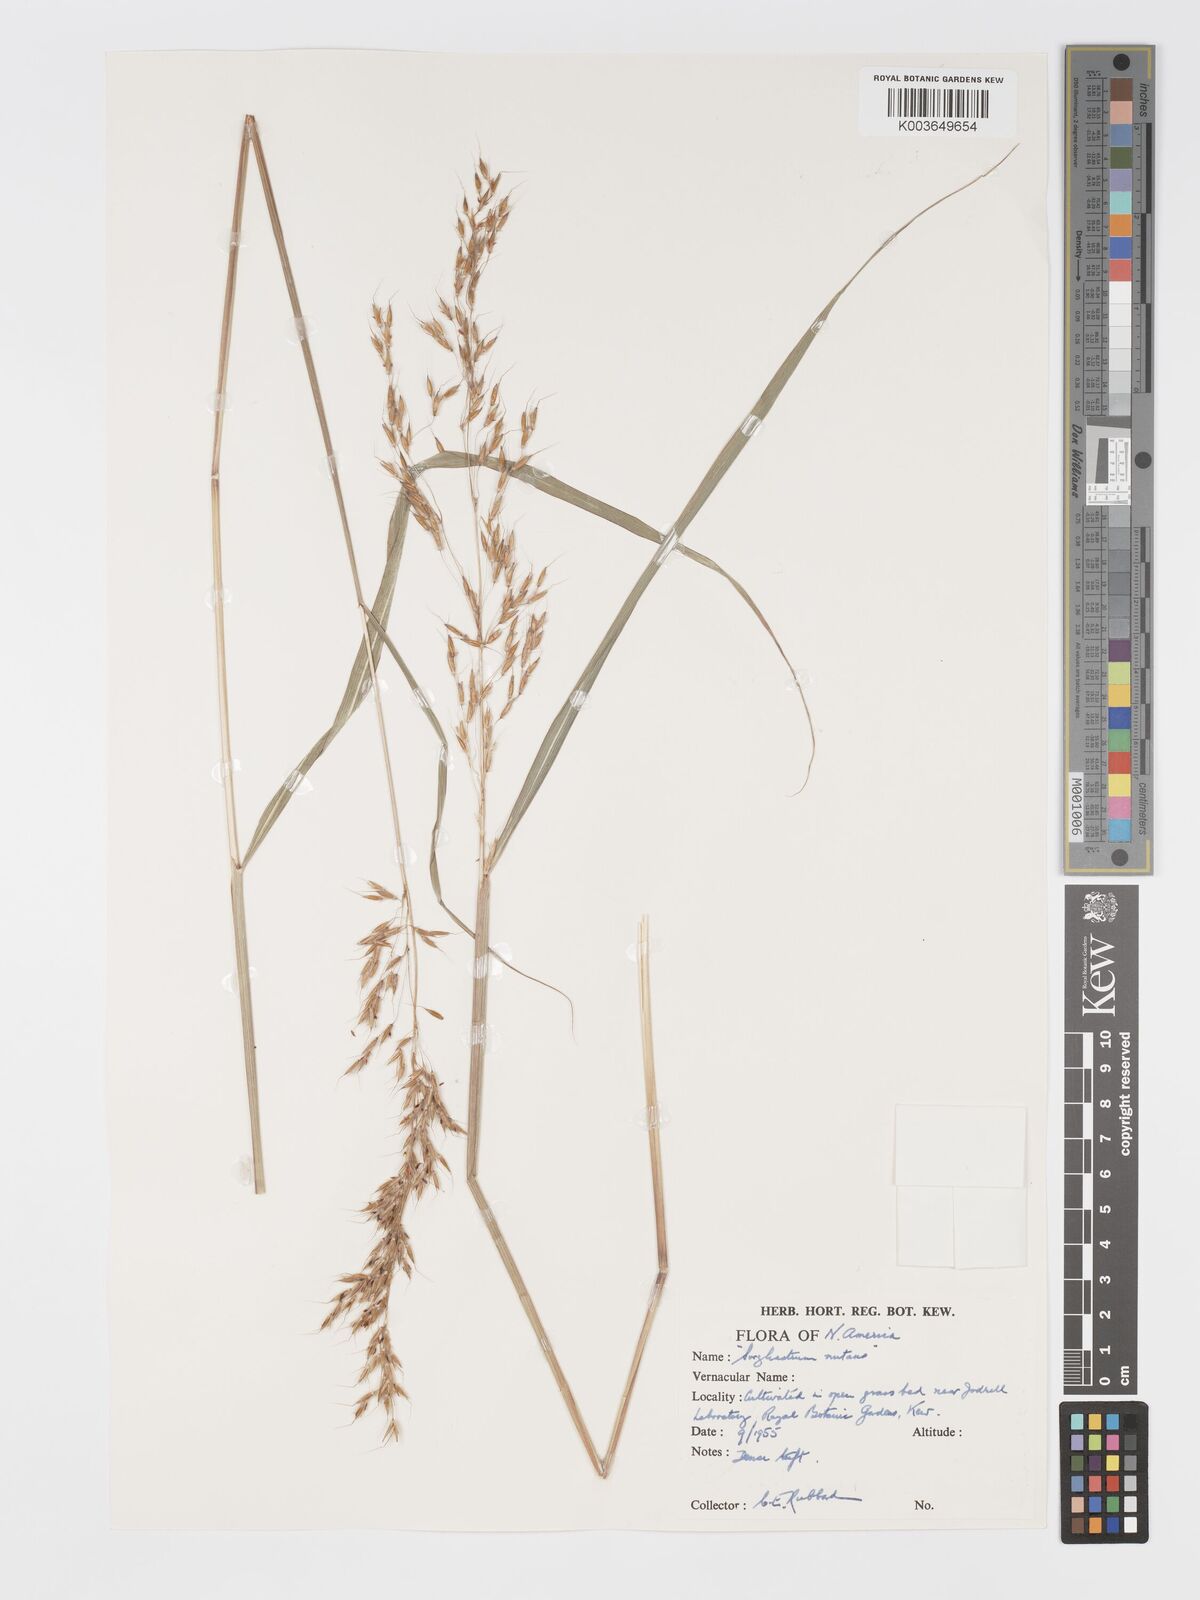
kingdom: Plantae
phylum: Tracheophyta
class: Liliopsida
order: Poales
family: Poaceae
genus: Sorghastrum
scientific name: Sorghastrum nutans
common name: Indian grass
